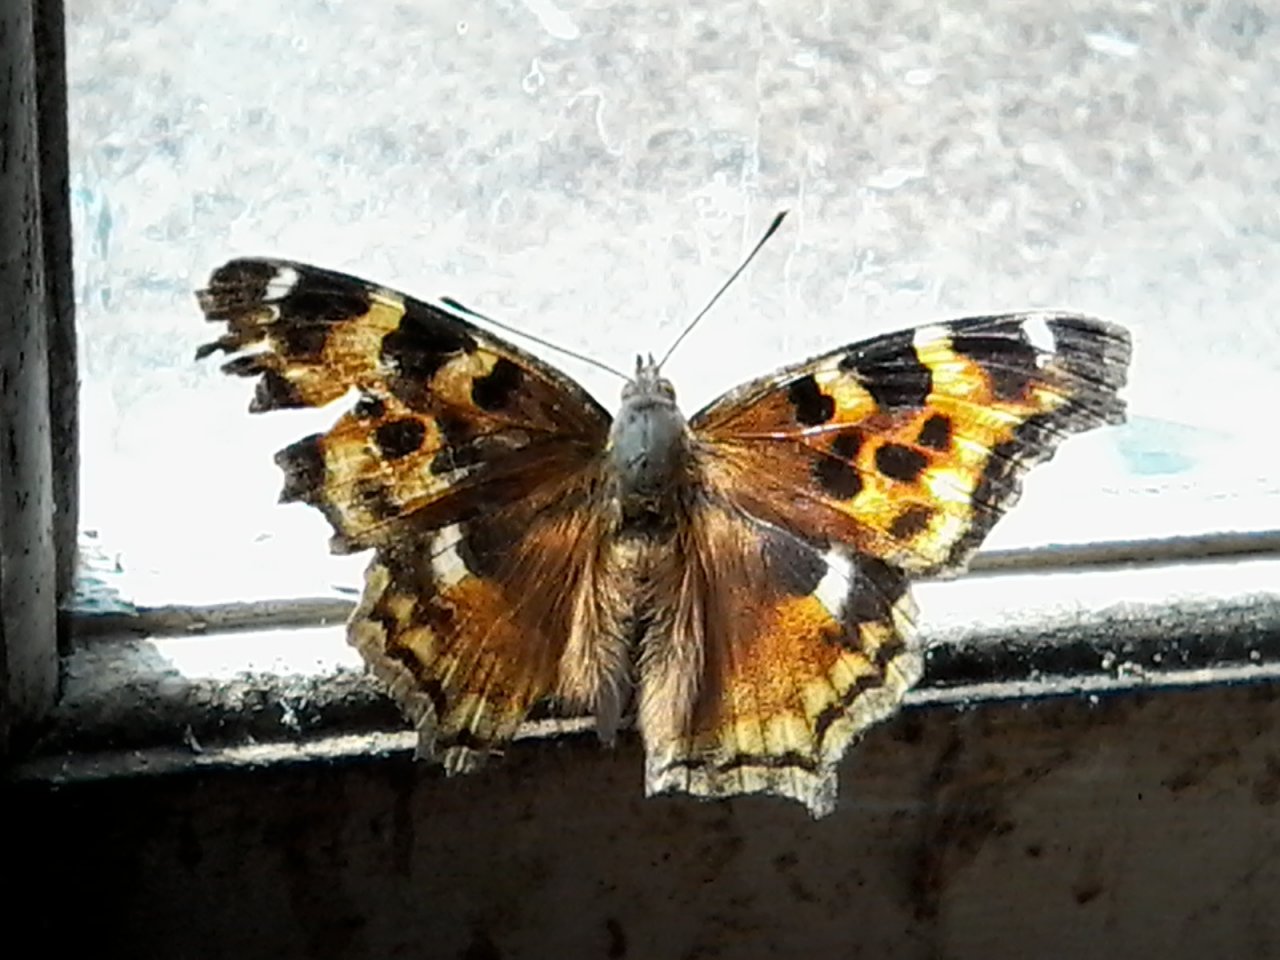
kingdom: Animalia
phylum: Arthropoda
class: Insecta
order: Lepidoptera
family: Nymphalidae
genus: Polygonia
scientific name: Polygonia vaualbum
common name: Compton Tortoiseshell
